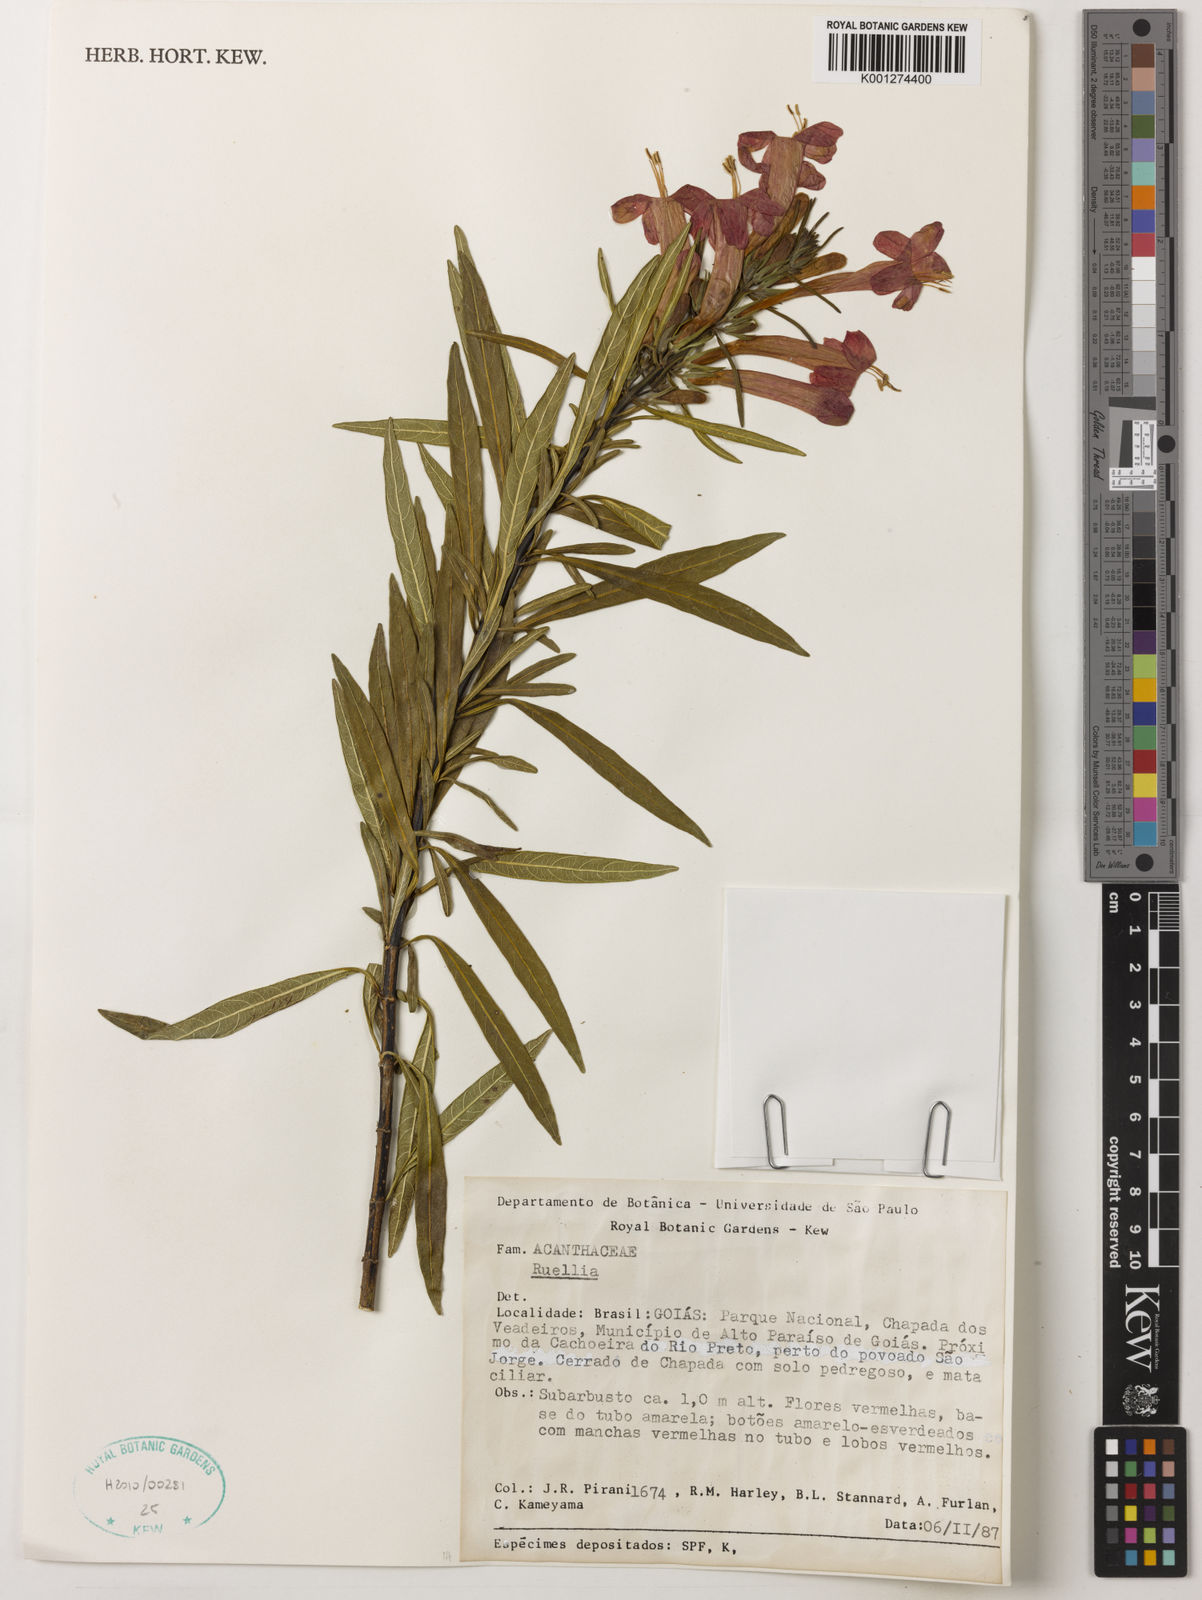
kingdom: Plantae
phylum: Tracheophyta
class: Magnoliopsida
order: Lamiales
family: Acanthaceae
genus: Ruellia
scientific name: Ruellia
